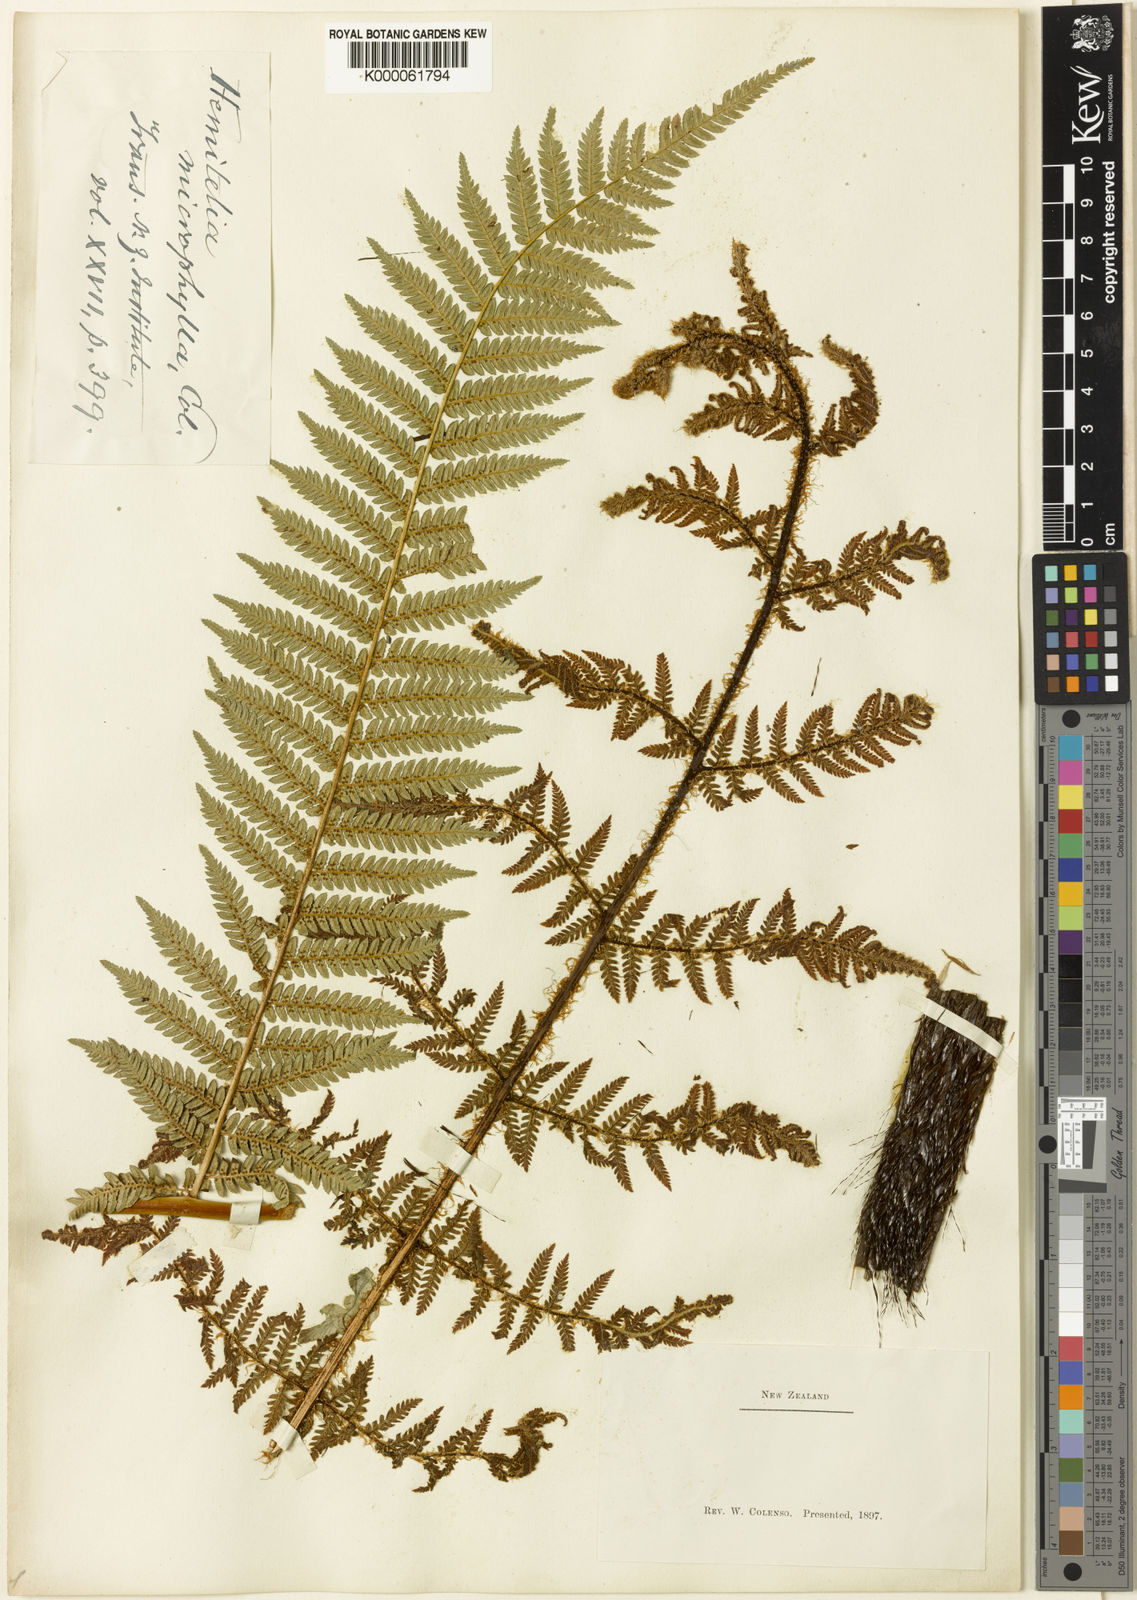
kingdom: Plantae
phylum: Tracheophyta
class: Polypodiopsida
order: Cyatheales
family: Cyatheaceae
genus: Alsophila
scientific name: Alsophila smithii
